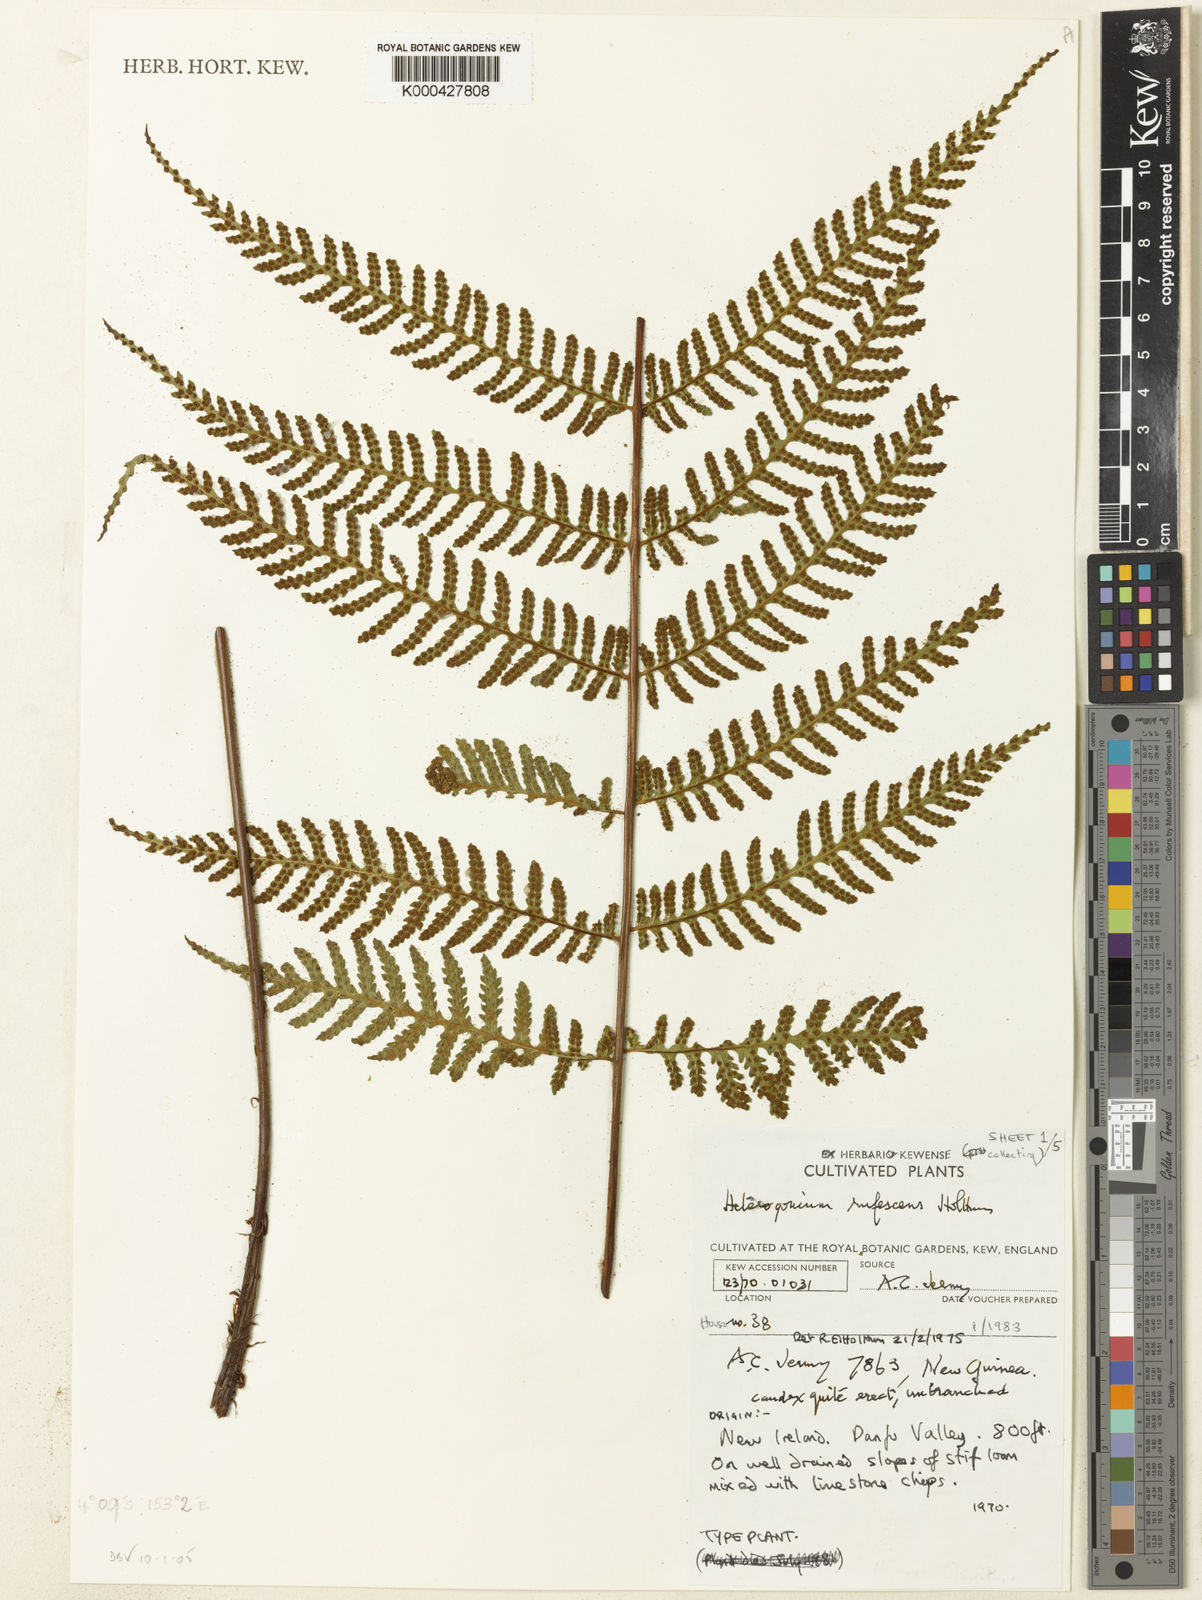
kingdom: Plantae
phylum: Tracheophyta
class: Polypodiopsida
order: Polypodiales
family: Tectariaceae
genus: Tectaria
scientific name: Tectaria jermyi
